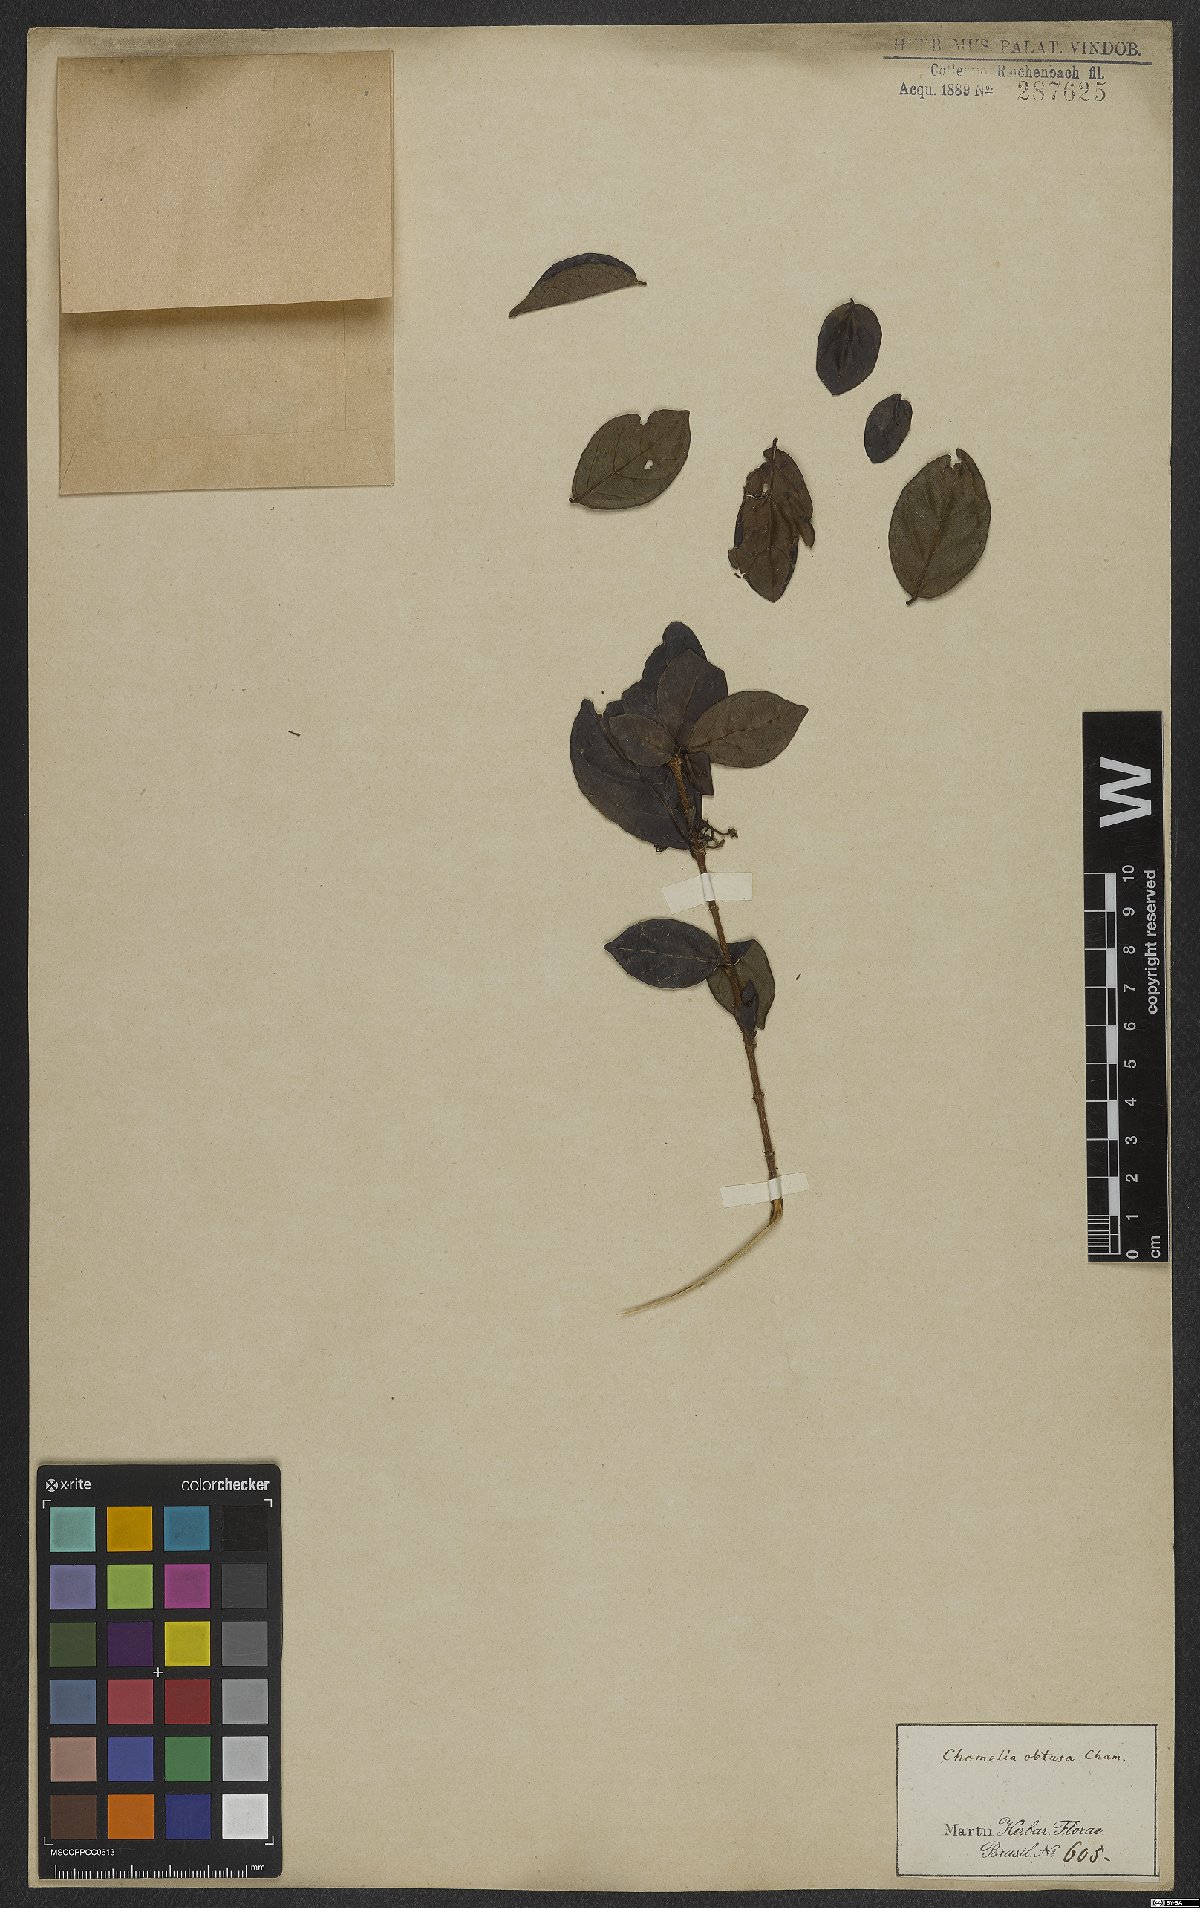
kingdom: Plantae
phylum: Tracheophyta
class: Magnoliopsida
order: Gentianales
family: Rubiaceae
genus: Chomelia
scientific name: Chomelia obtusa
